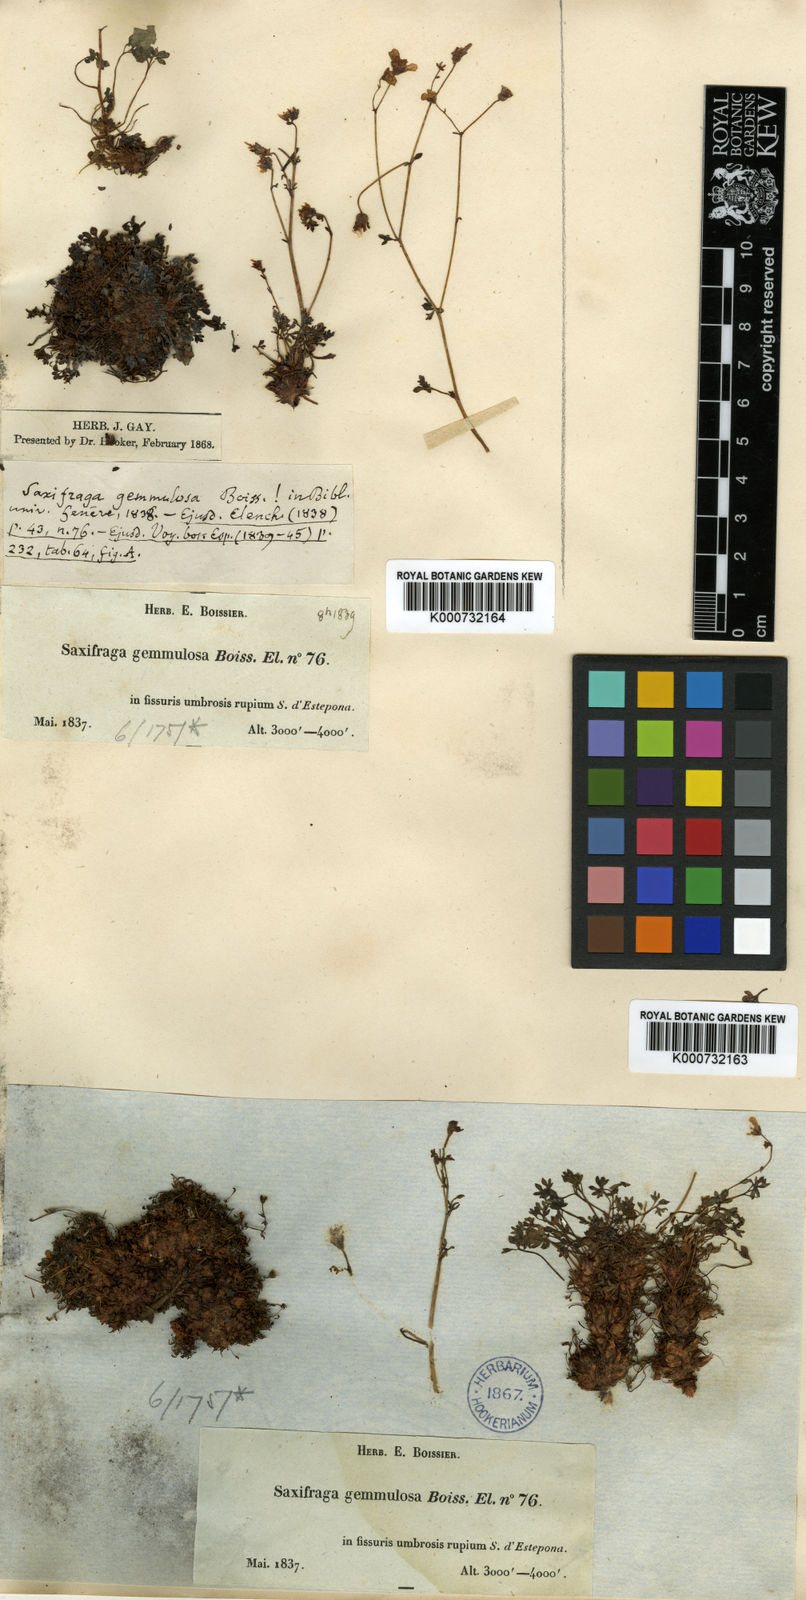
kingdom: Plantae
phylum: Tracheophyta
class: Magnoliopsida
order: Saxifragales
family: Saxifragaceae
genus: Saxifraga
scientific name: Saxifraga gemmulosa
